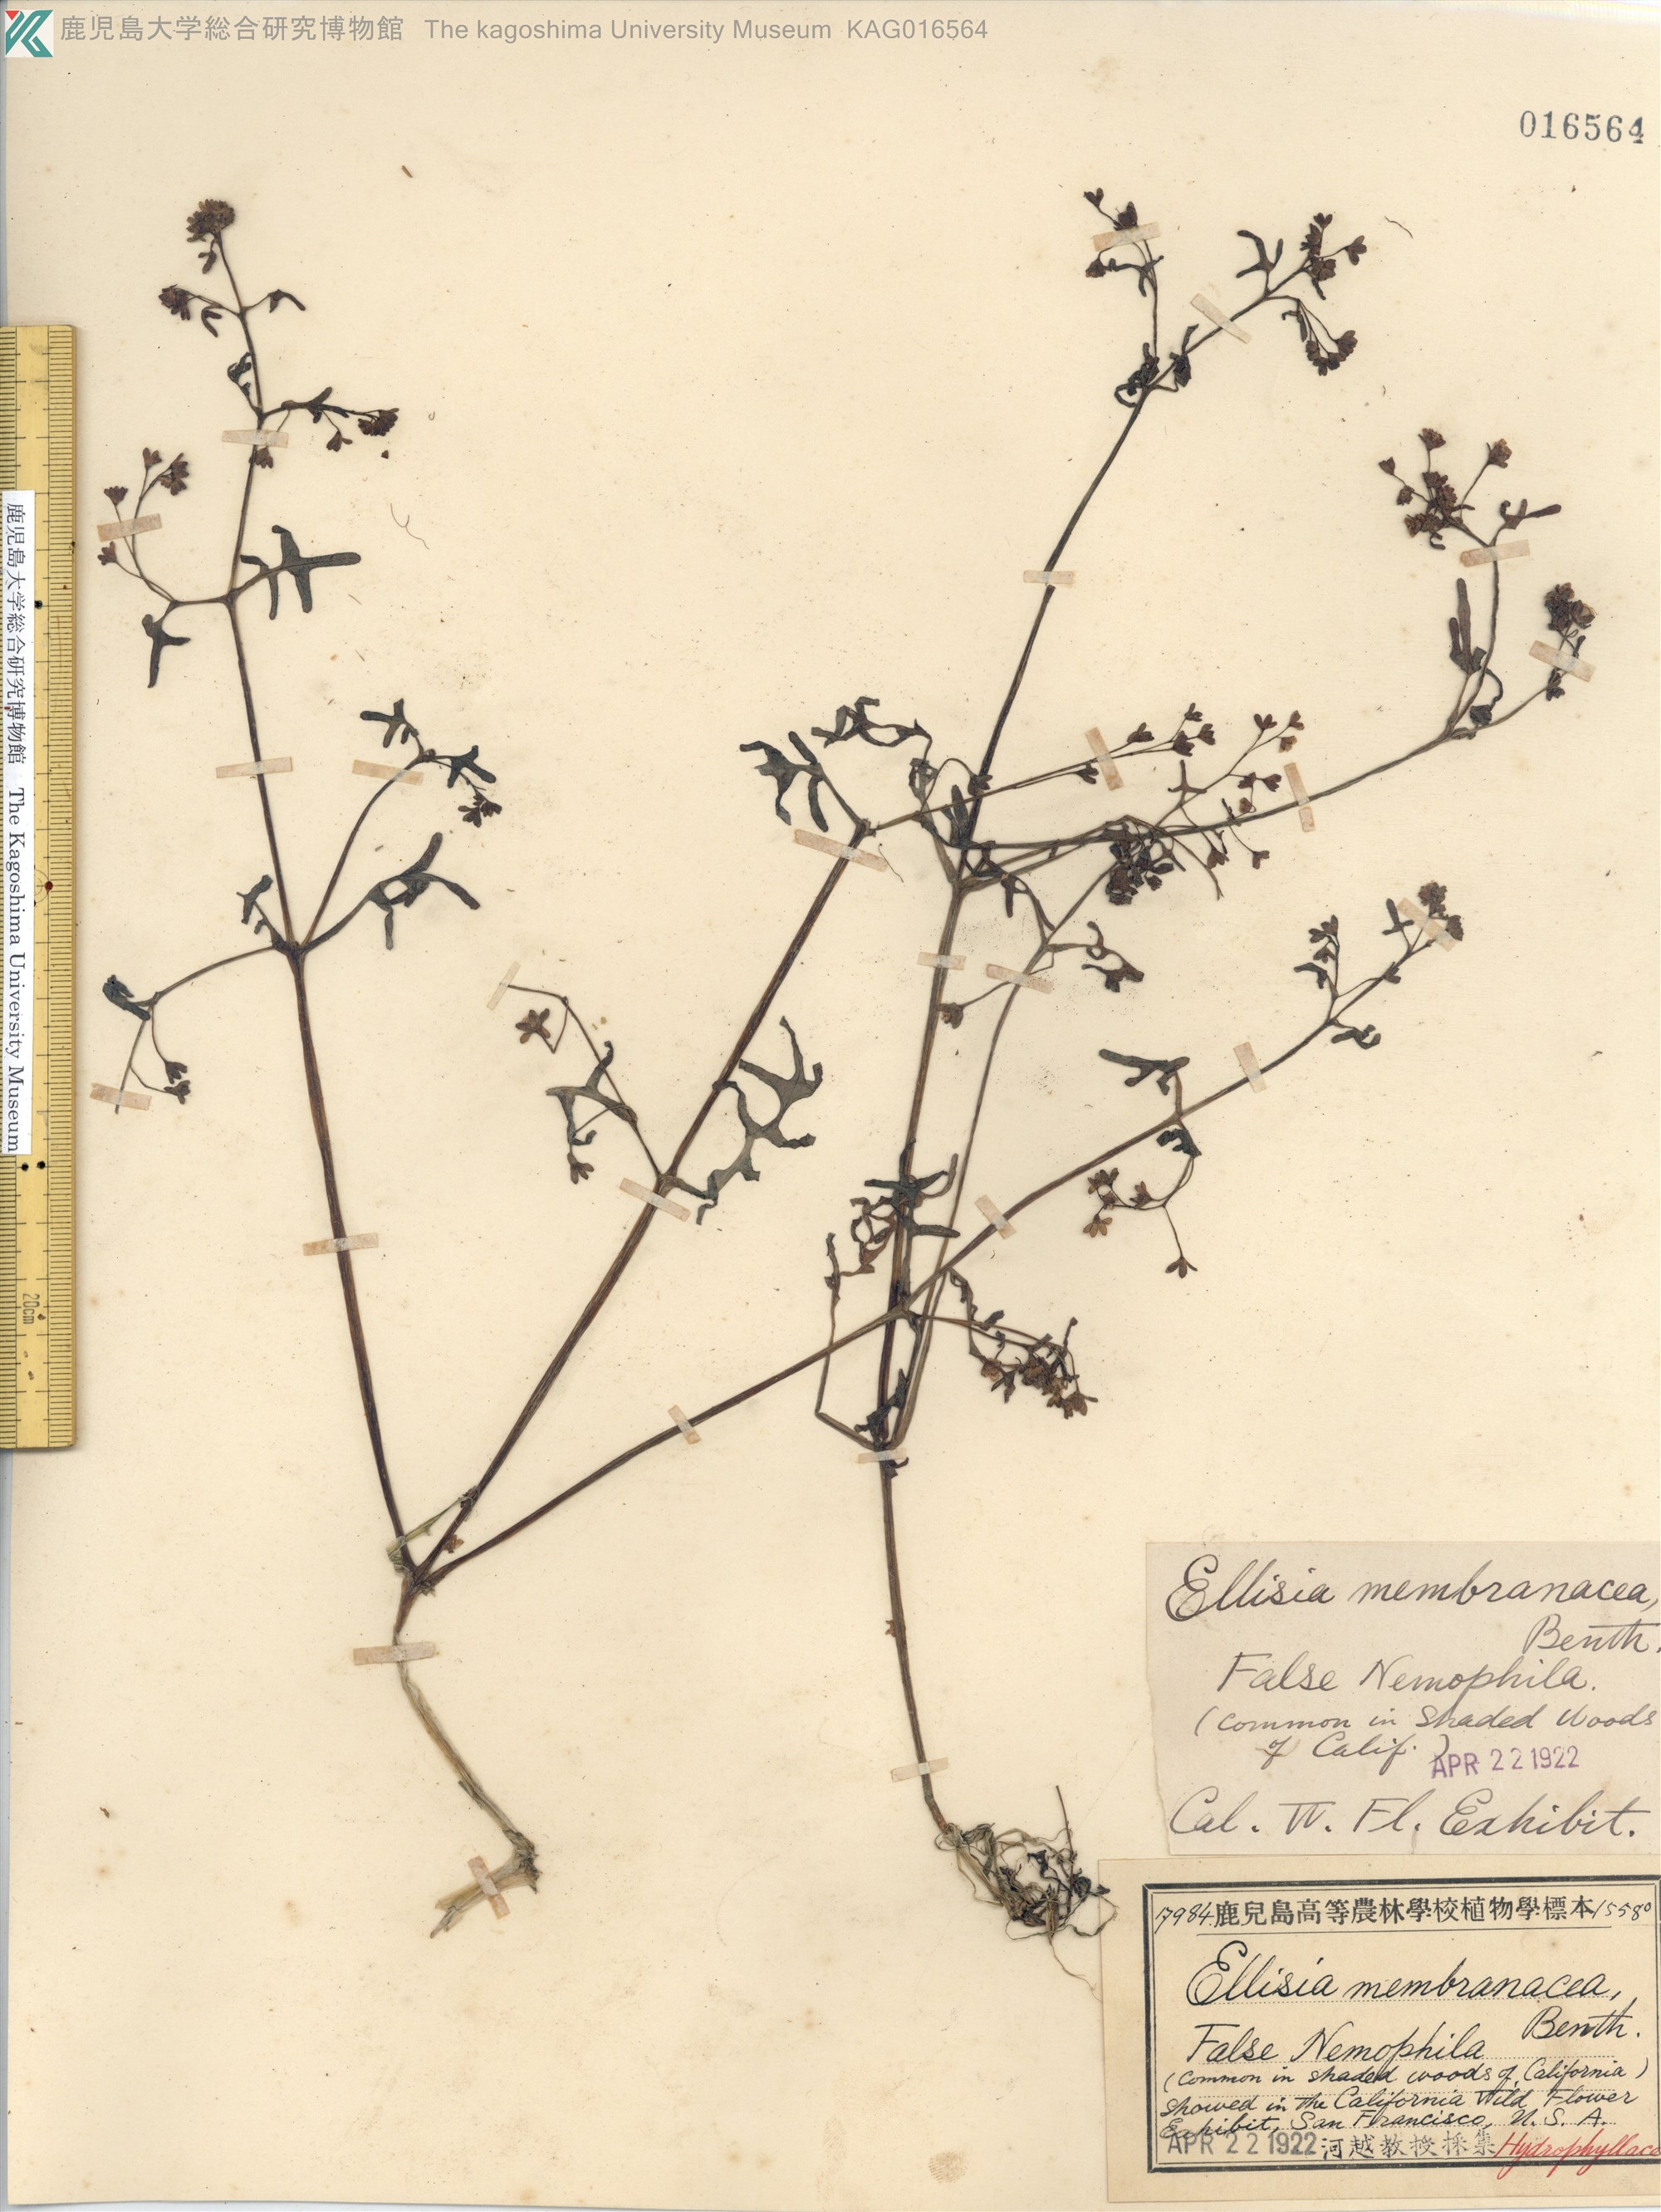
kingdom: Plantae
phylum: Tracheophyta
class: Magnoliopsida
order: Boraginales
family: Hydrophyllaceae
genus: Pholistoma
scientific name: Pholistoma membranaceum
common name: White fiesta-flower
